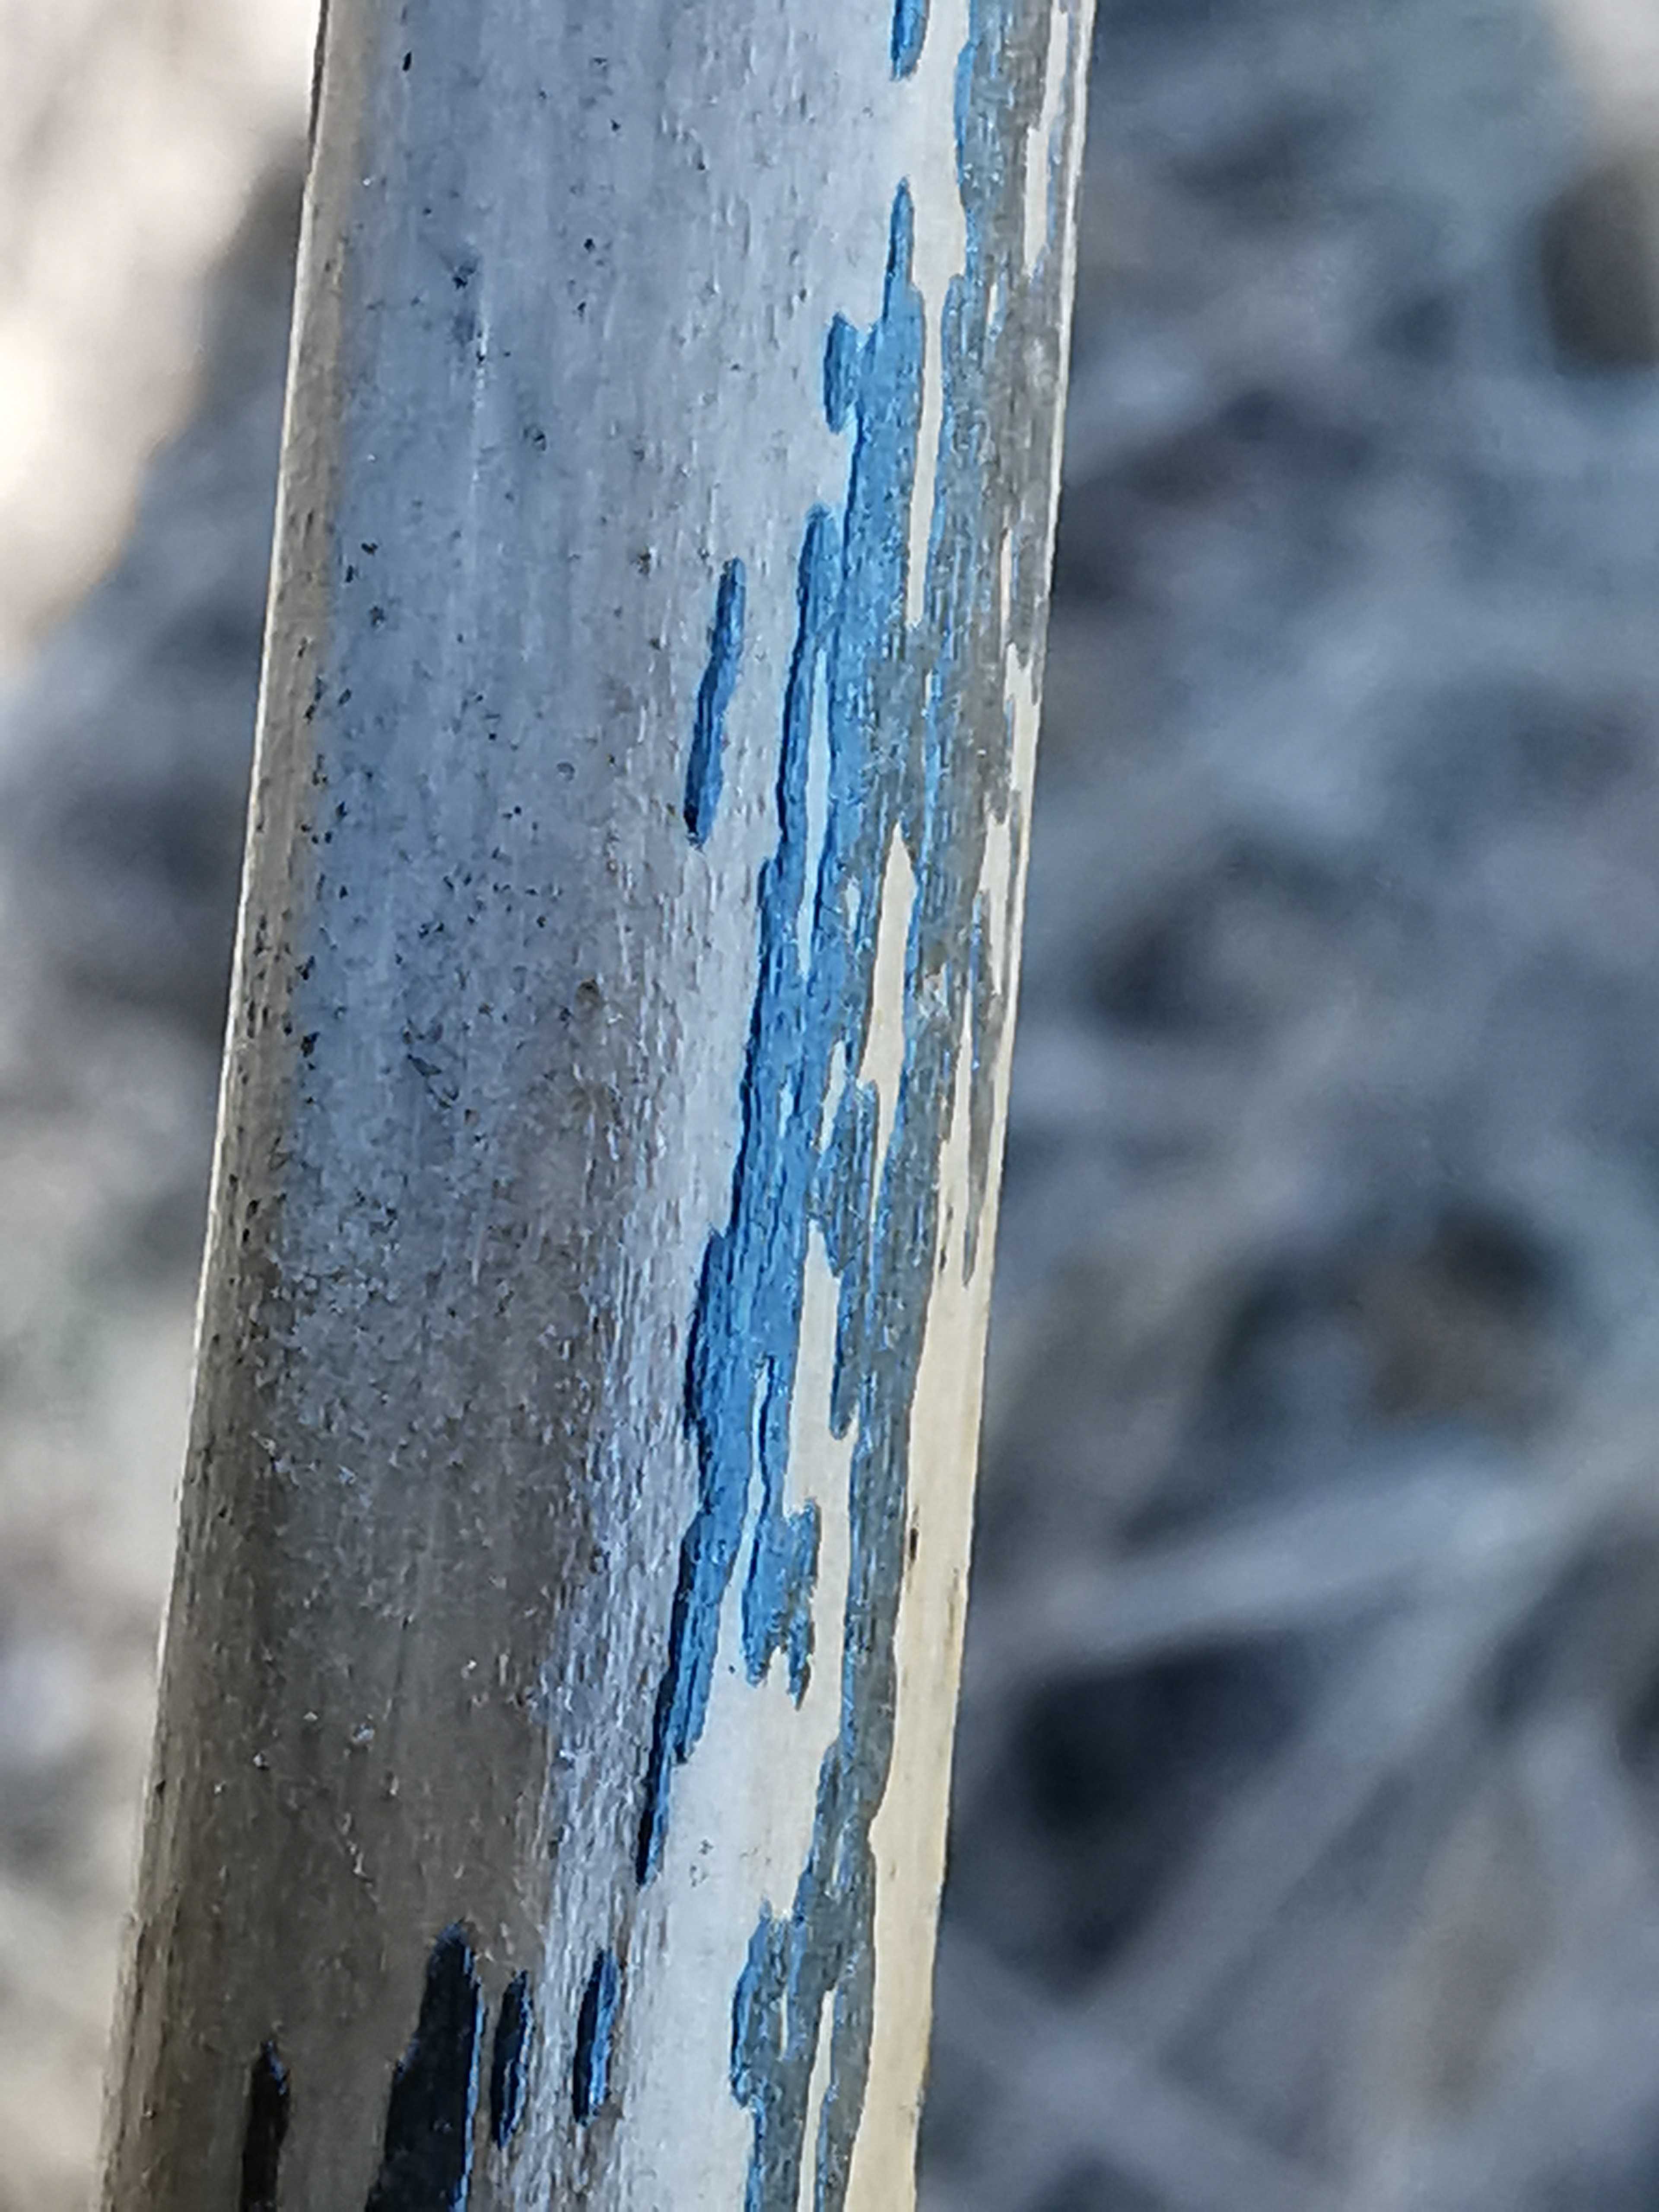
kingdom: Fungi
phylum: Ascomycota
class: Dothideomycetes
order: Pleosporales
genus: Rhopographus
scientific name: Rhopographus filicinus
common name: Bracken map
